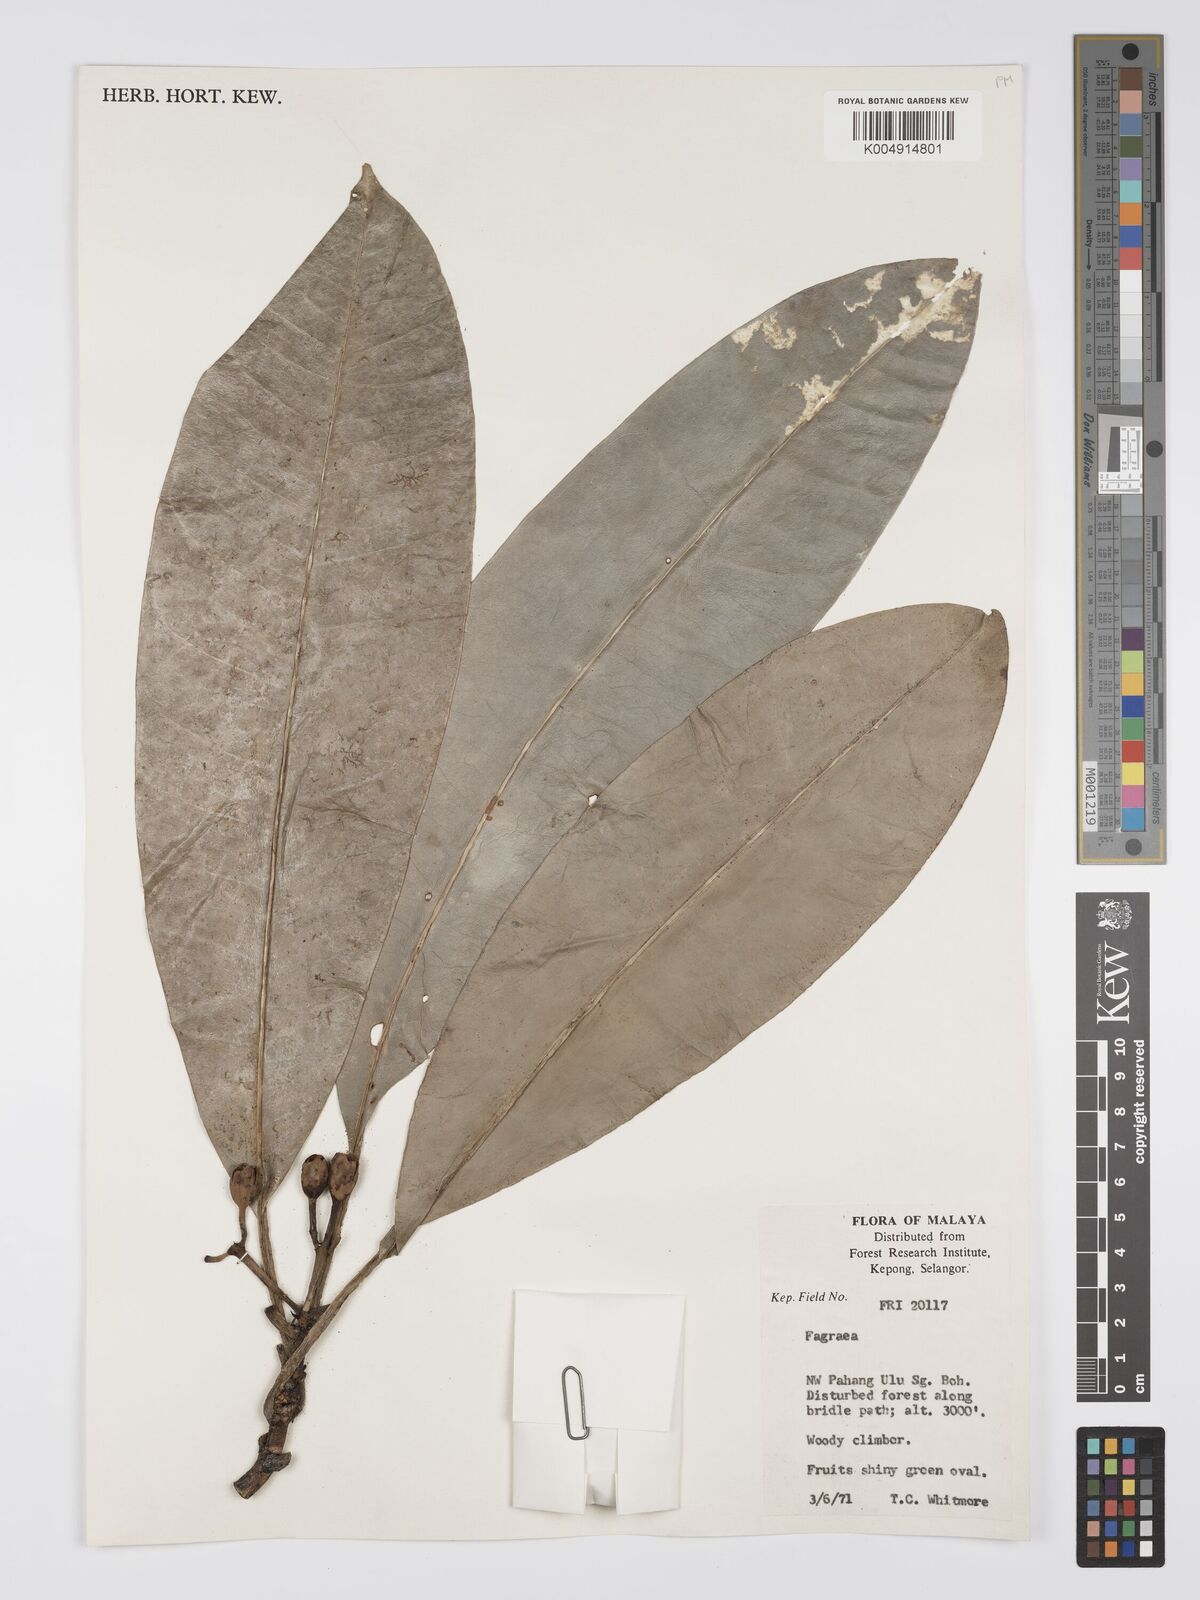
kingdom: Plantae
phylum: Tracheophyta
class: Magnoliopsida
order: Gentianales
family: Gentianaceae
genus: Fagraea
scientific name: Fagraea oblonga
